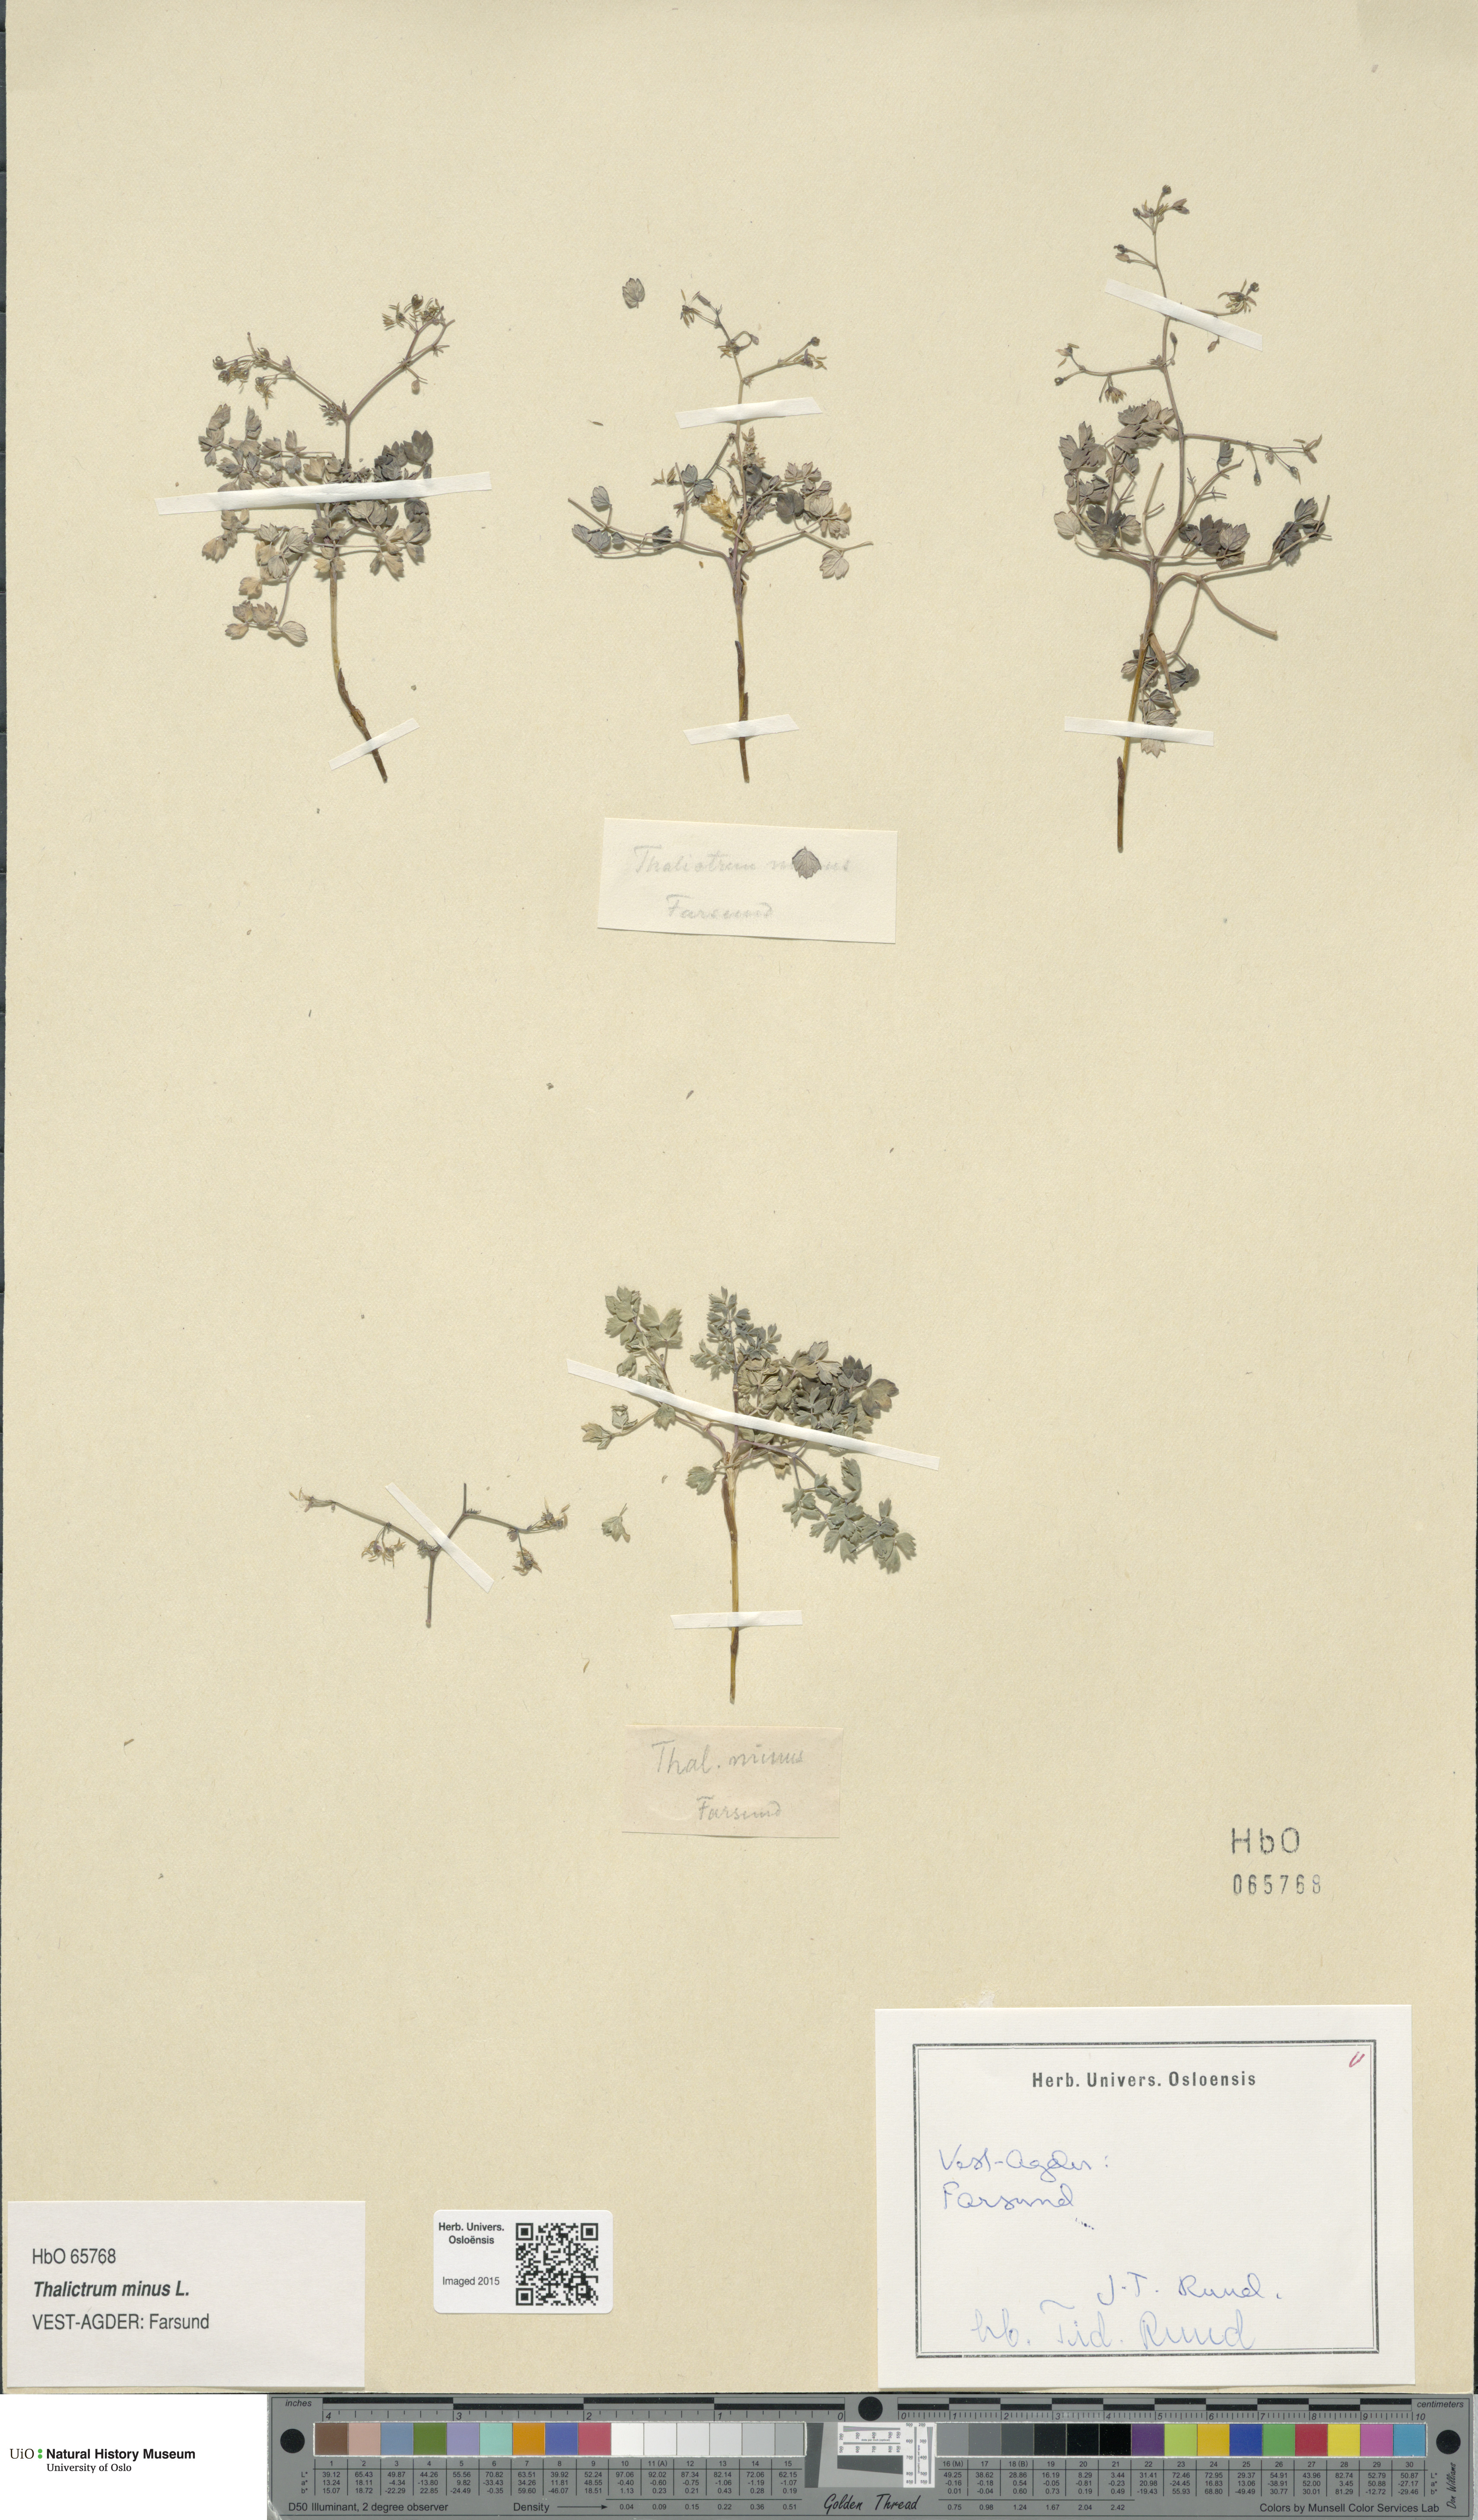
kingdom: Plantae
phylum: Tracheophyta
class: Magnoliopsida
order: Ranunculales
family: Ranunculaceae
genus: Thalictrum
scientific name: Thalictrum minus
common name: Lesser meadow-rue
